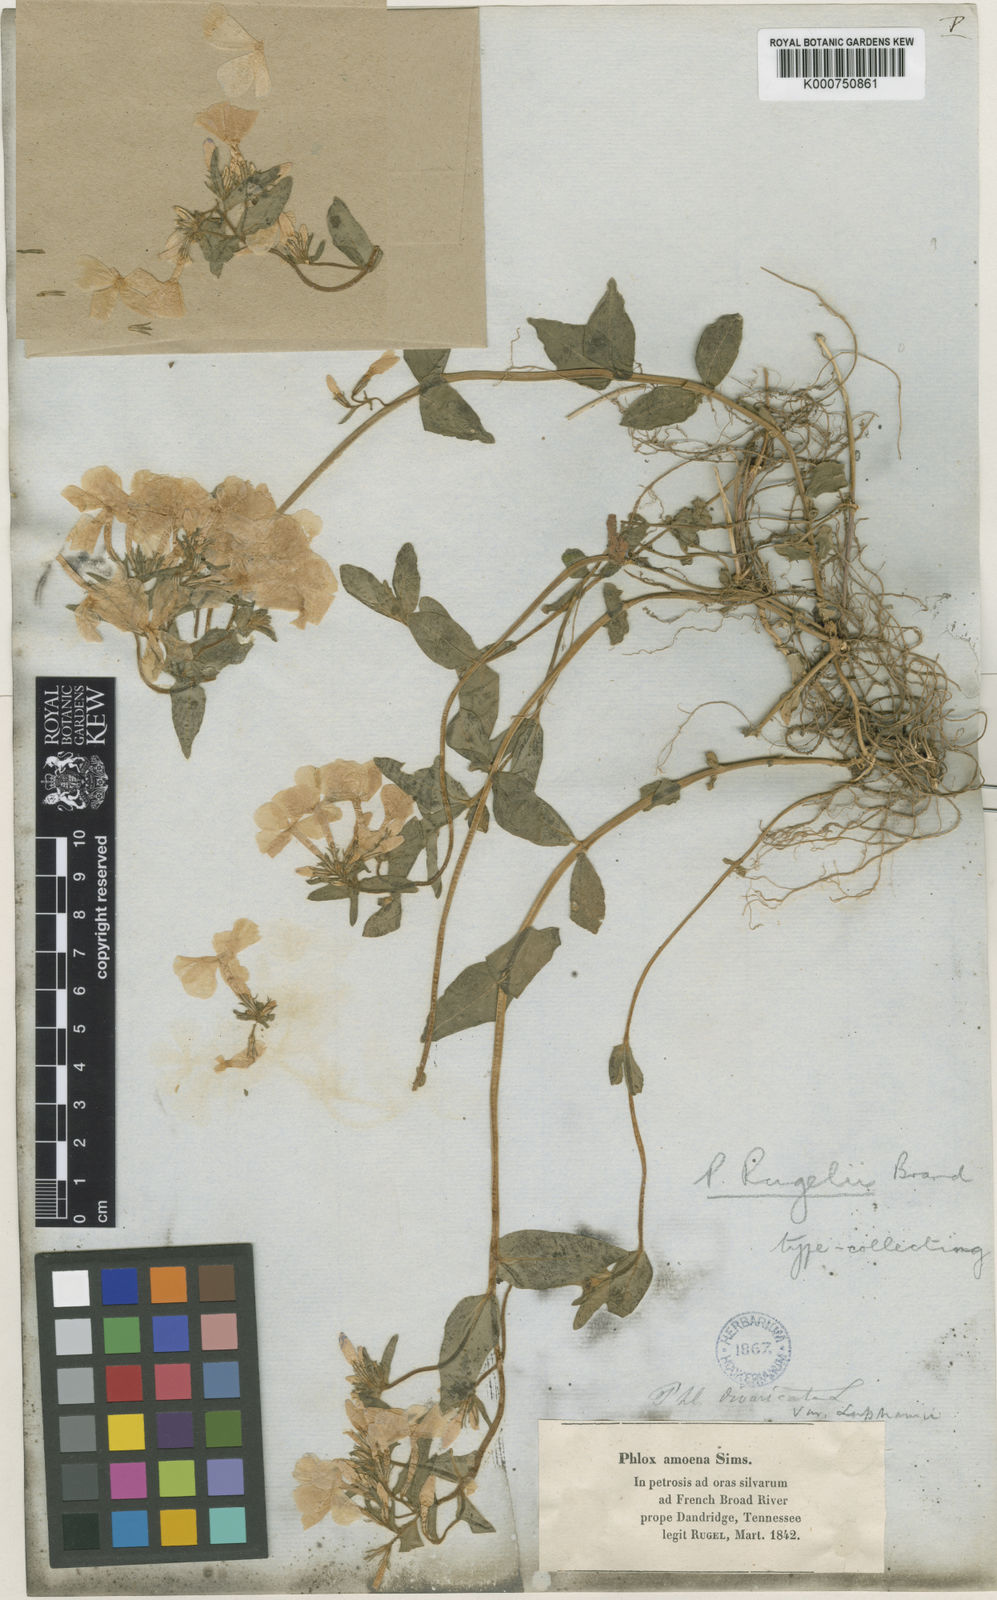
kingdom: Plantae
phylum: Tracheophyta
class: Magnoliopsida
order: Ericales
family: Polemoniaceae
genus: Phlox
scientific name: Phlox
